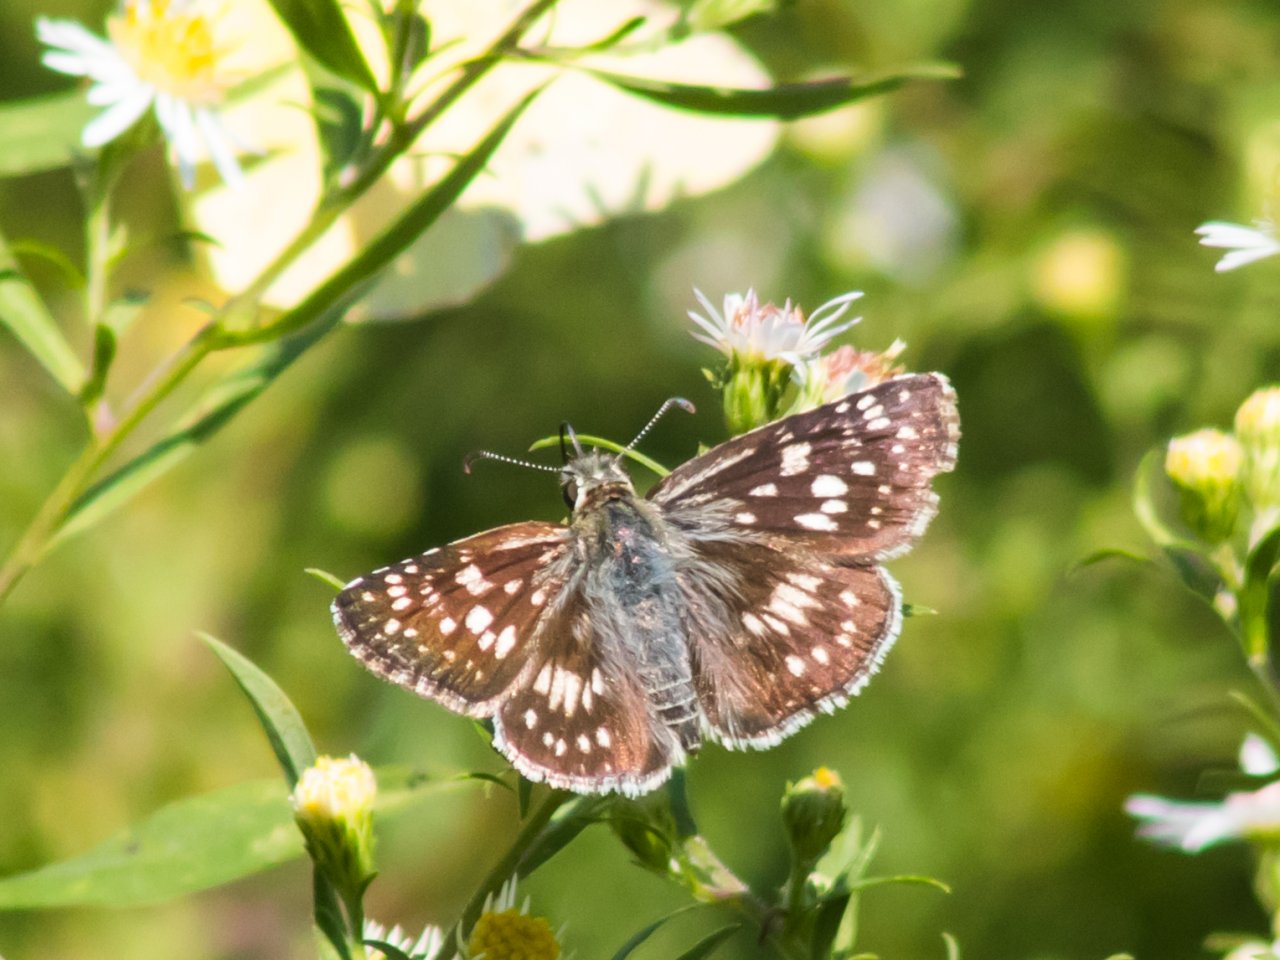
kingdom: Animalia
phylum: Arthropoda
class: Insecta
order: Lepidoptera
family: Hesperiidae
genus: Pyrgus
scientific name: Pyrgus communis
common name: Common Checkered-Skipper
